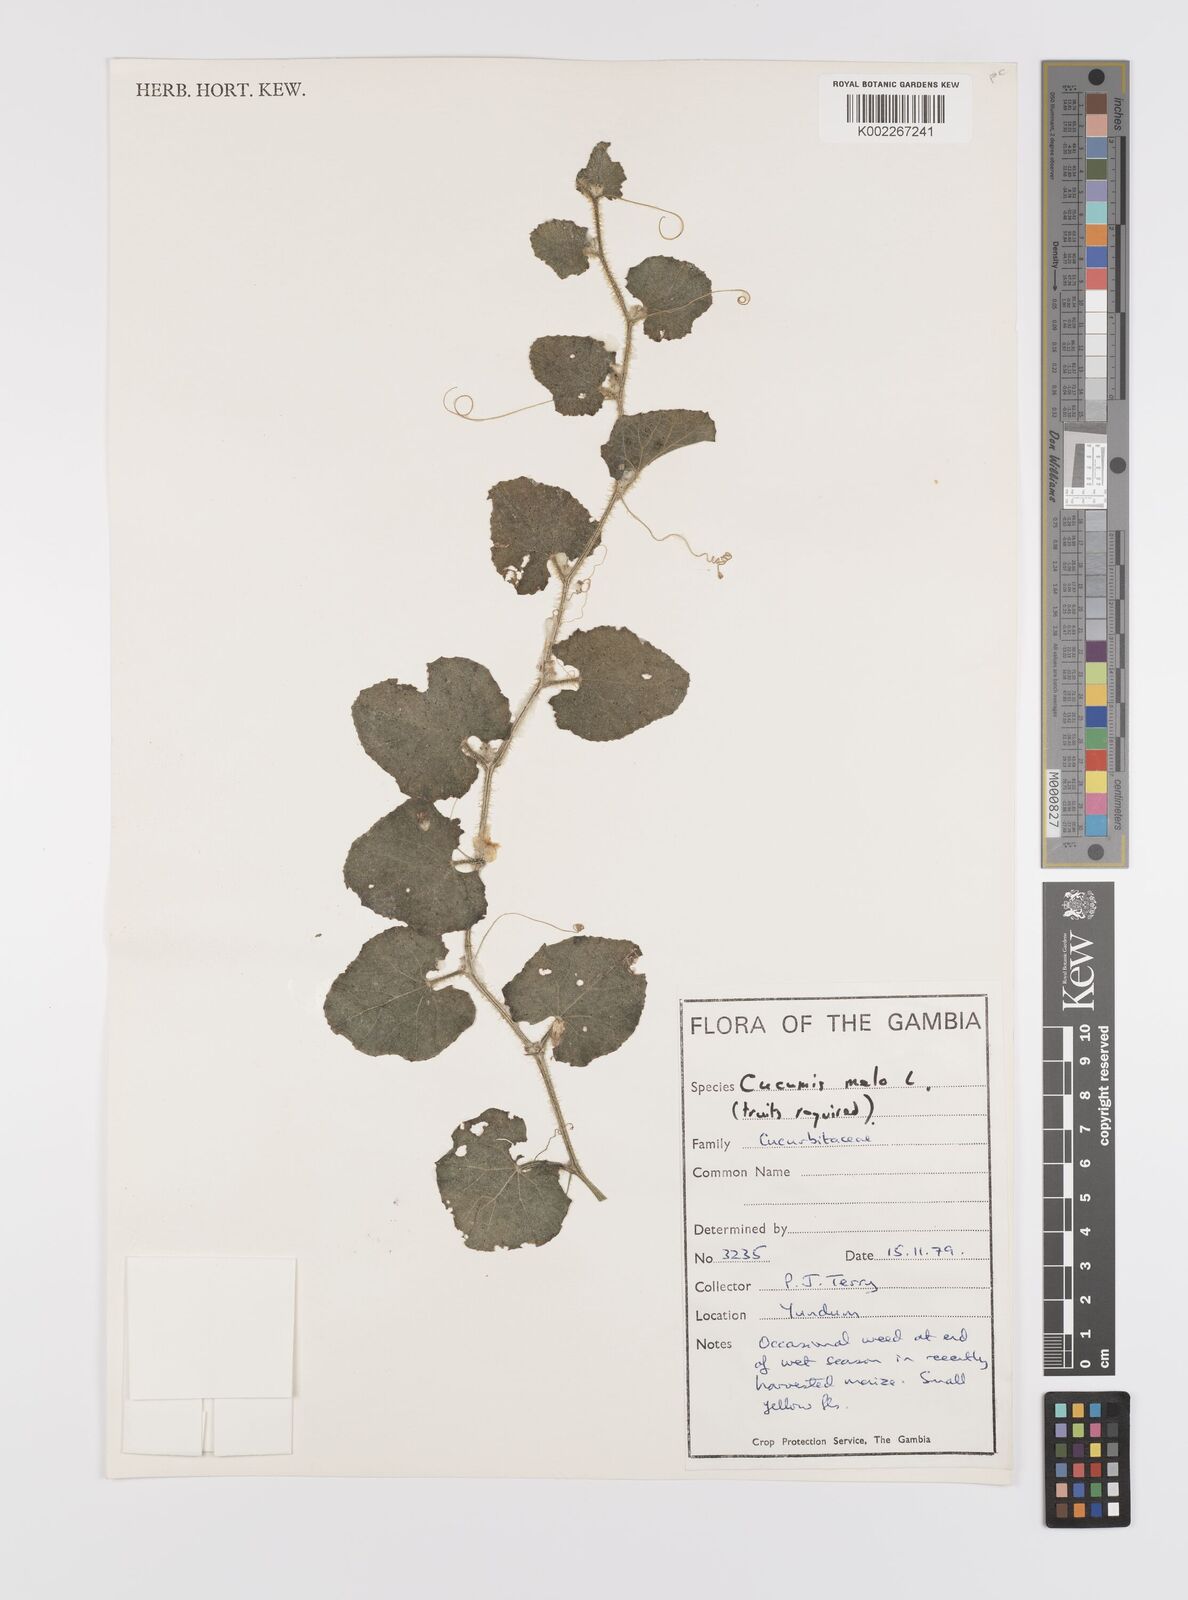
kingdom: Plantae
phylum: Tracheophyta
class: Magnoliopsida
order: Cucurbitales
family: Cucurbitaceae
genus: Cucumis
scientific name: Cucumis melo
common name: Melon
